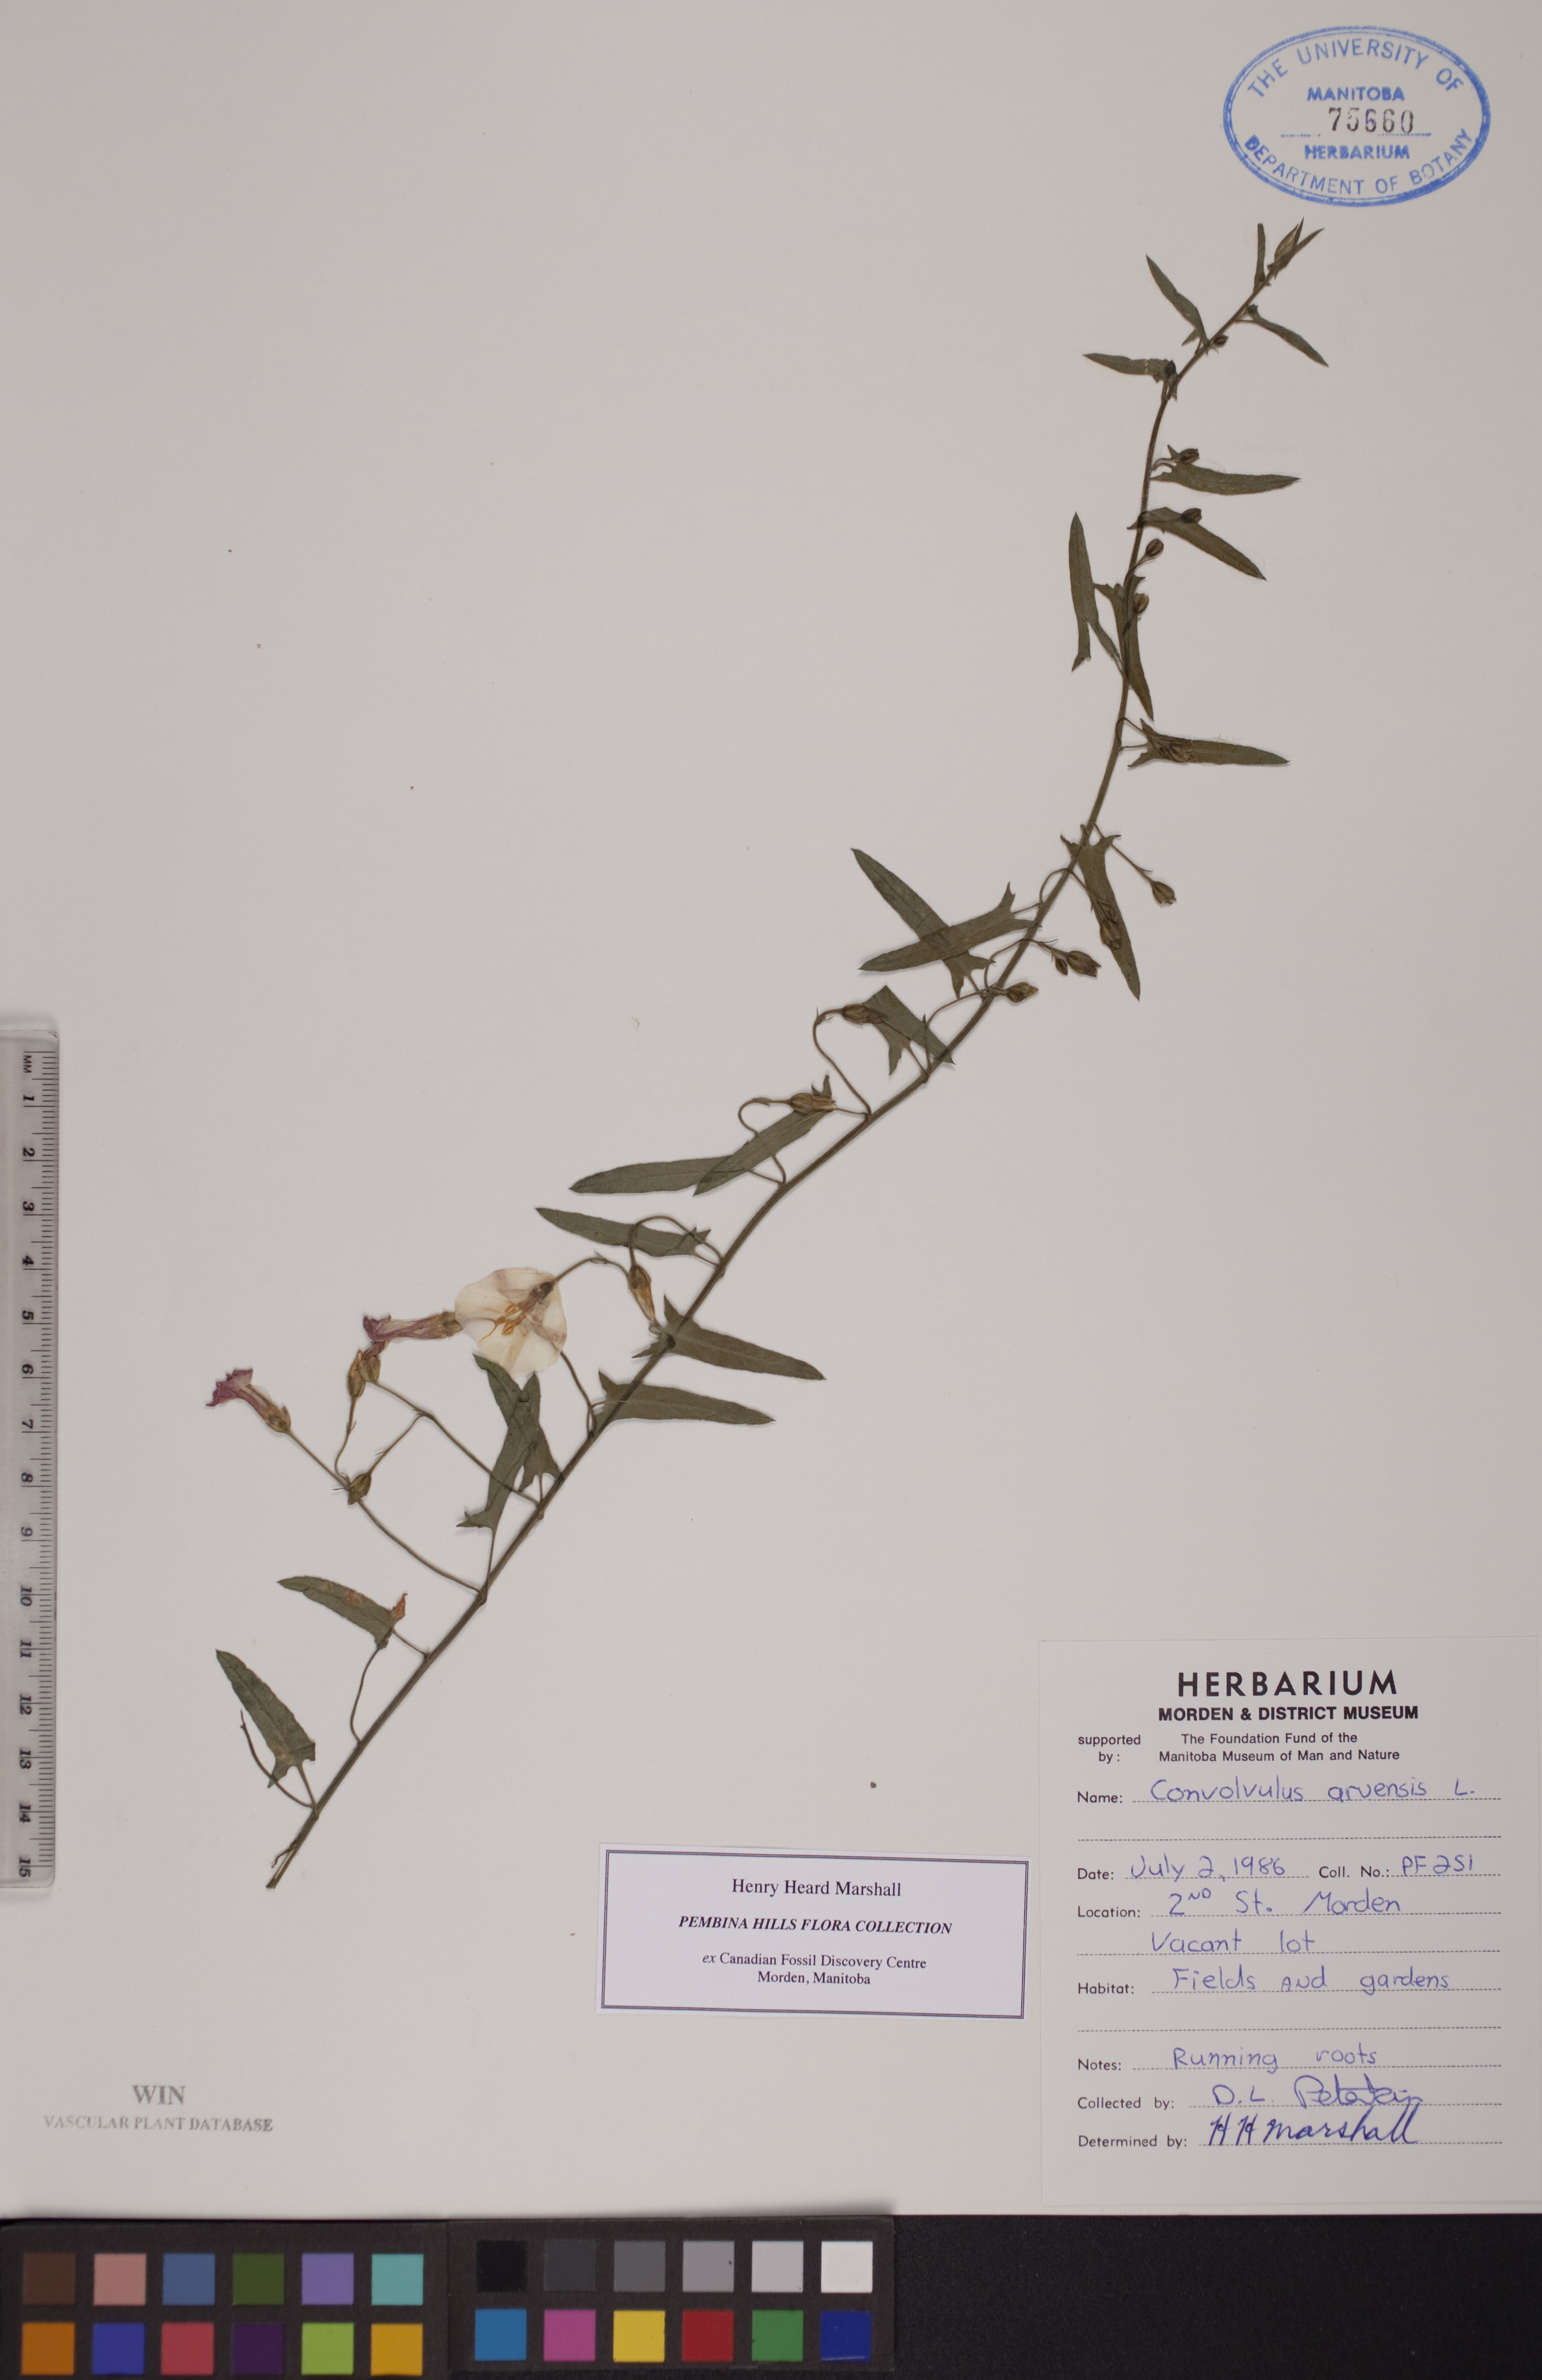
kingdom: Plantae
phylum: Tracheophyta
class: Magnoliopsida
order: Solanales
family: Convolvulaceae
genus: Convolvulus
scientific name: Convolvulus arvensis
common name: Field bindweed
